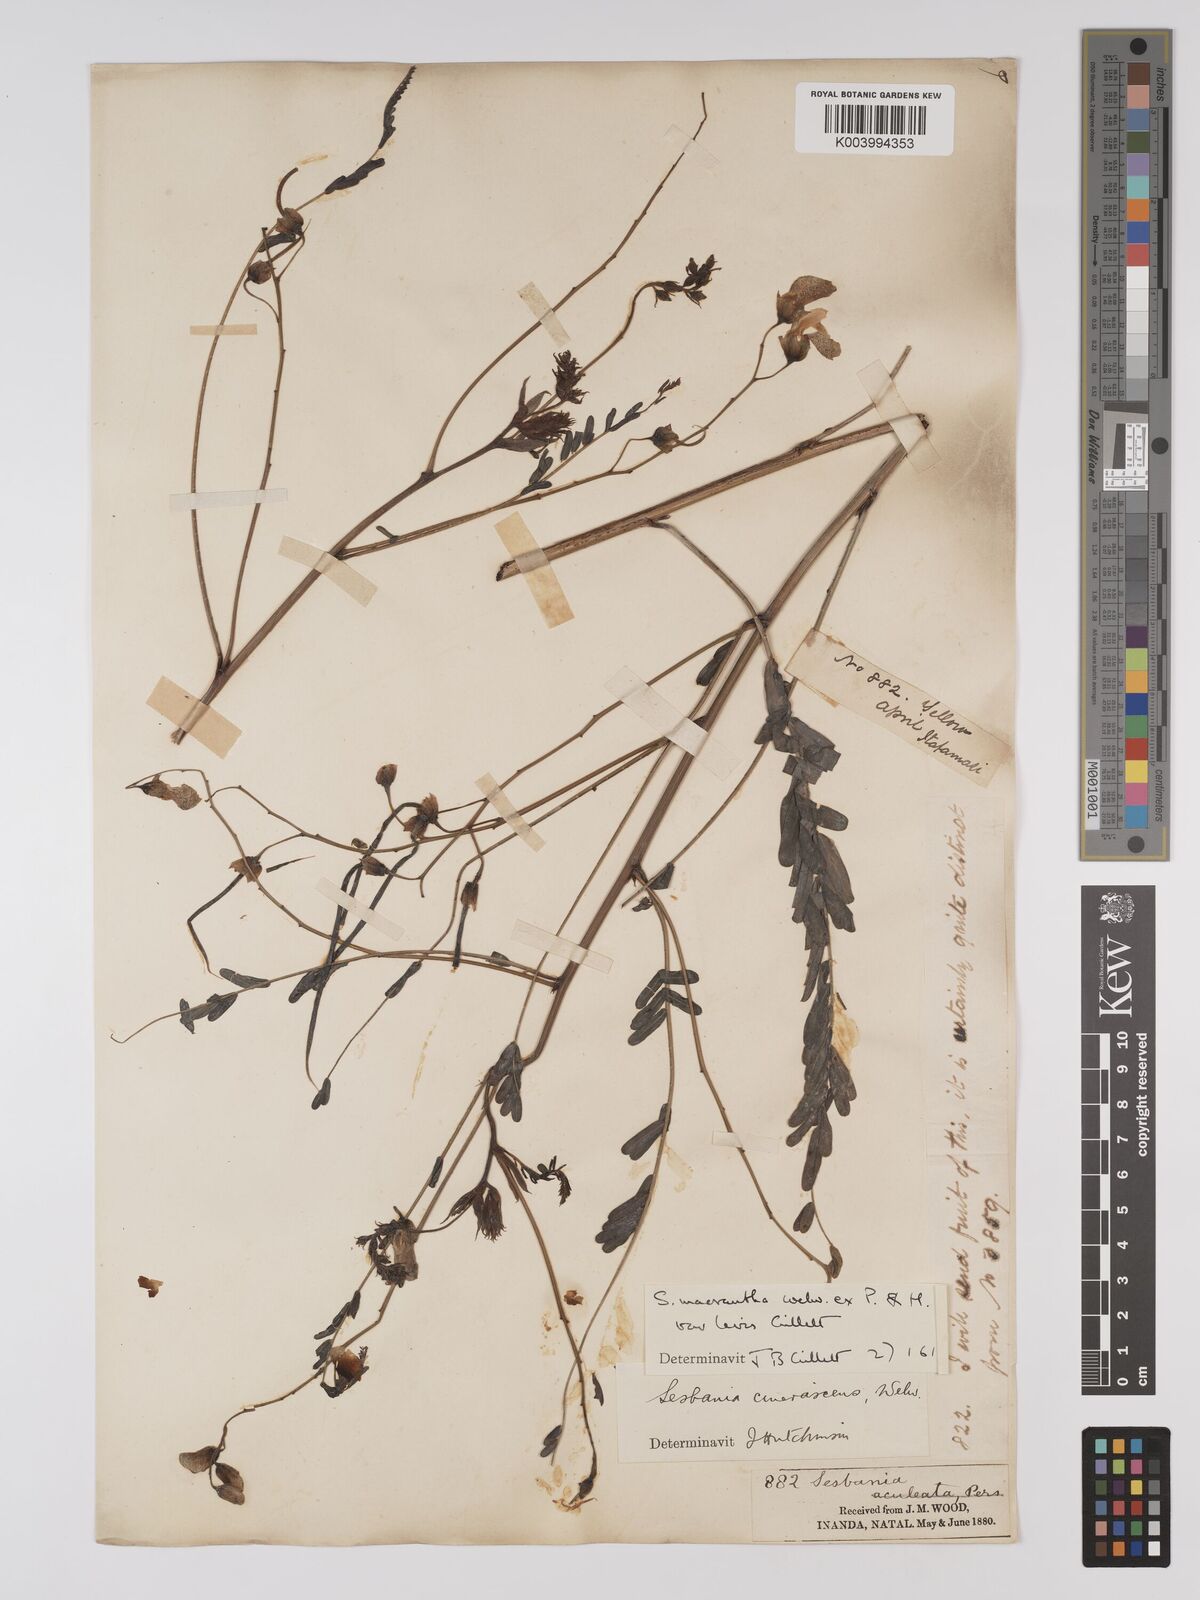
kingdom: Plantae
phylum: Tracheophyta
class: Magnoliopsida
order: Fabales
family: Fabaceae
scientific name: Fabaceae
